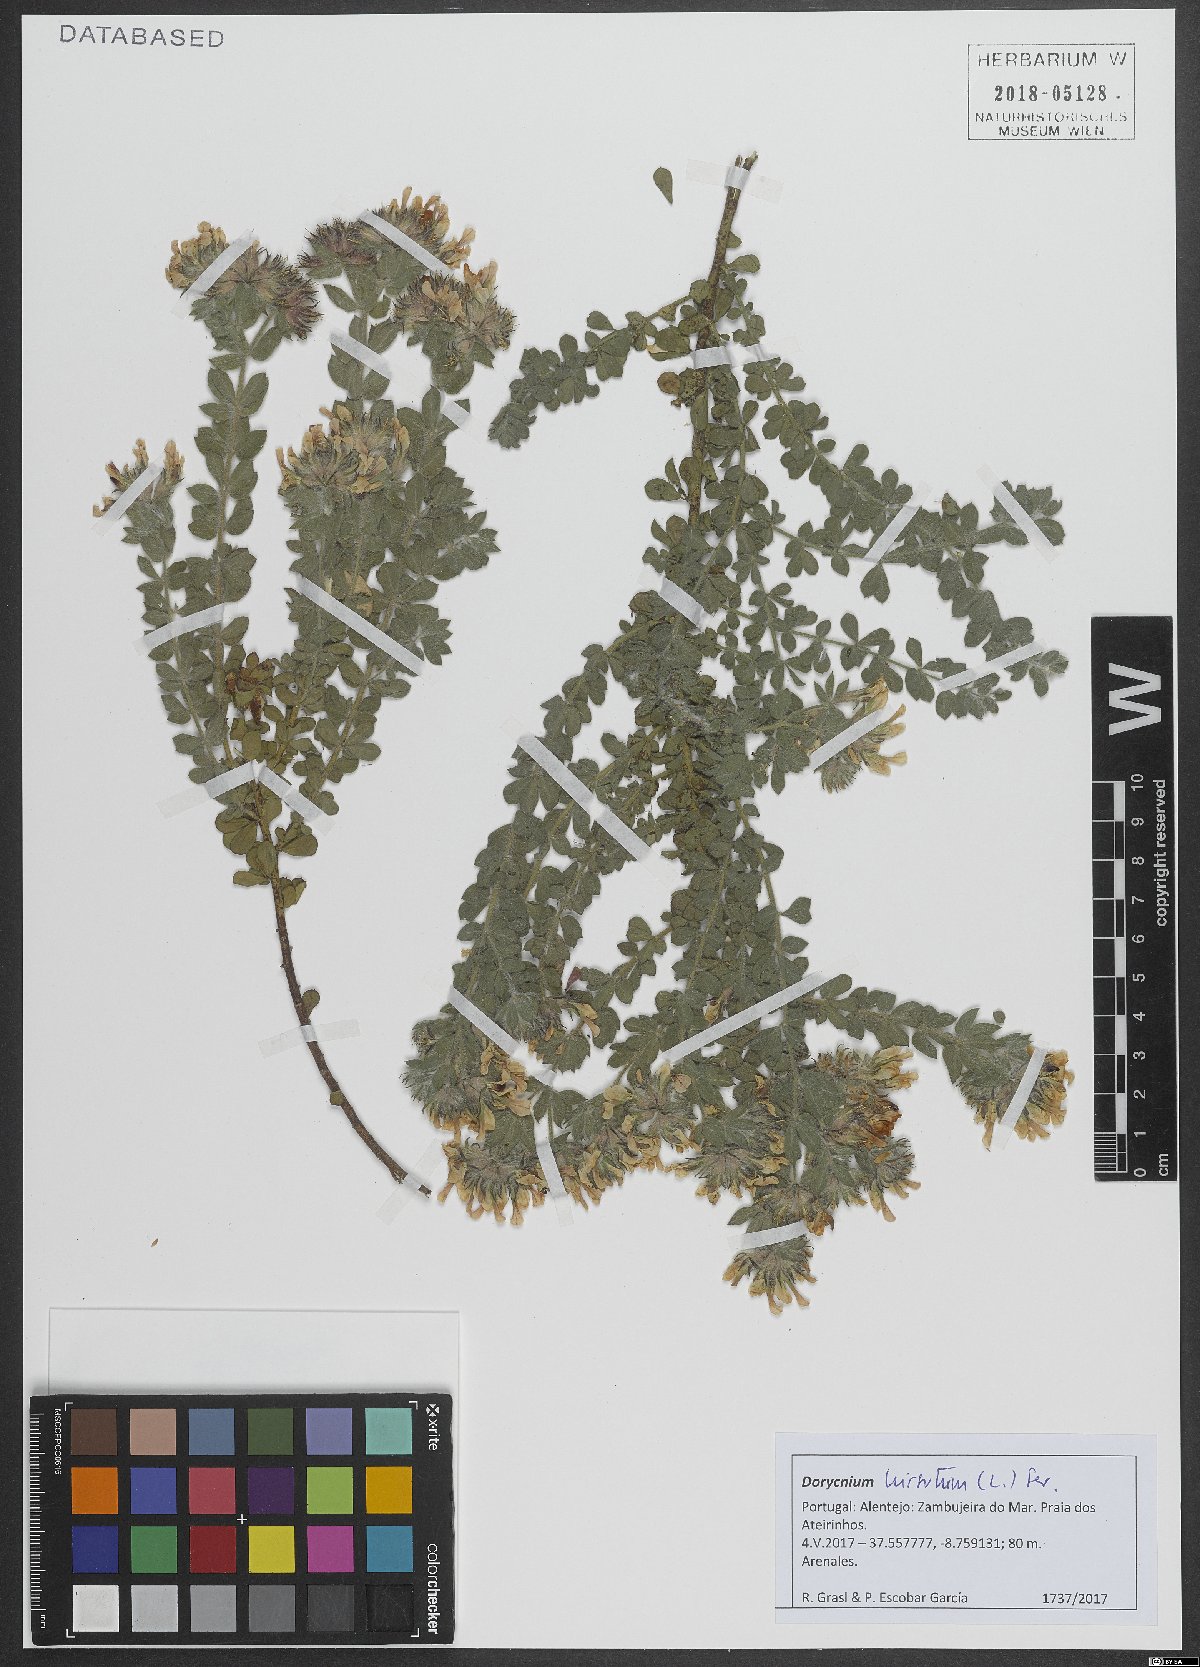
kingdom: Plantae
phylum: Tracheophyta
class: Magnoliopsida
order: Fabales
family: Fabaceae
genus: Lotus
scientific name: Lotus hirsutus
